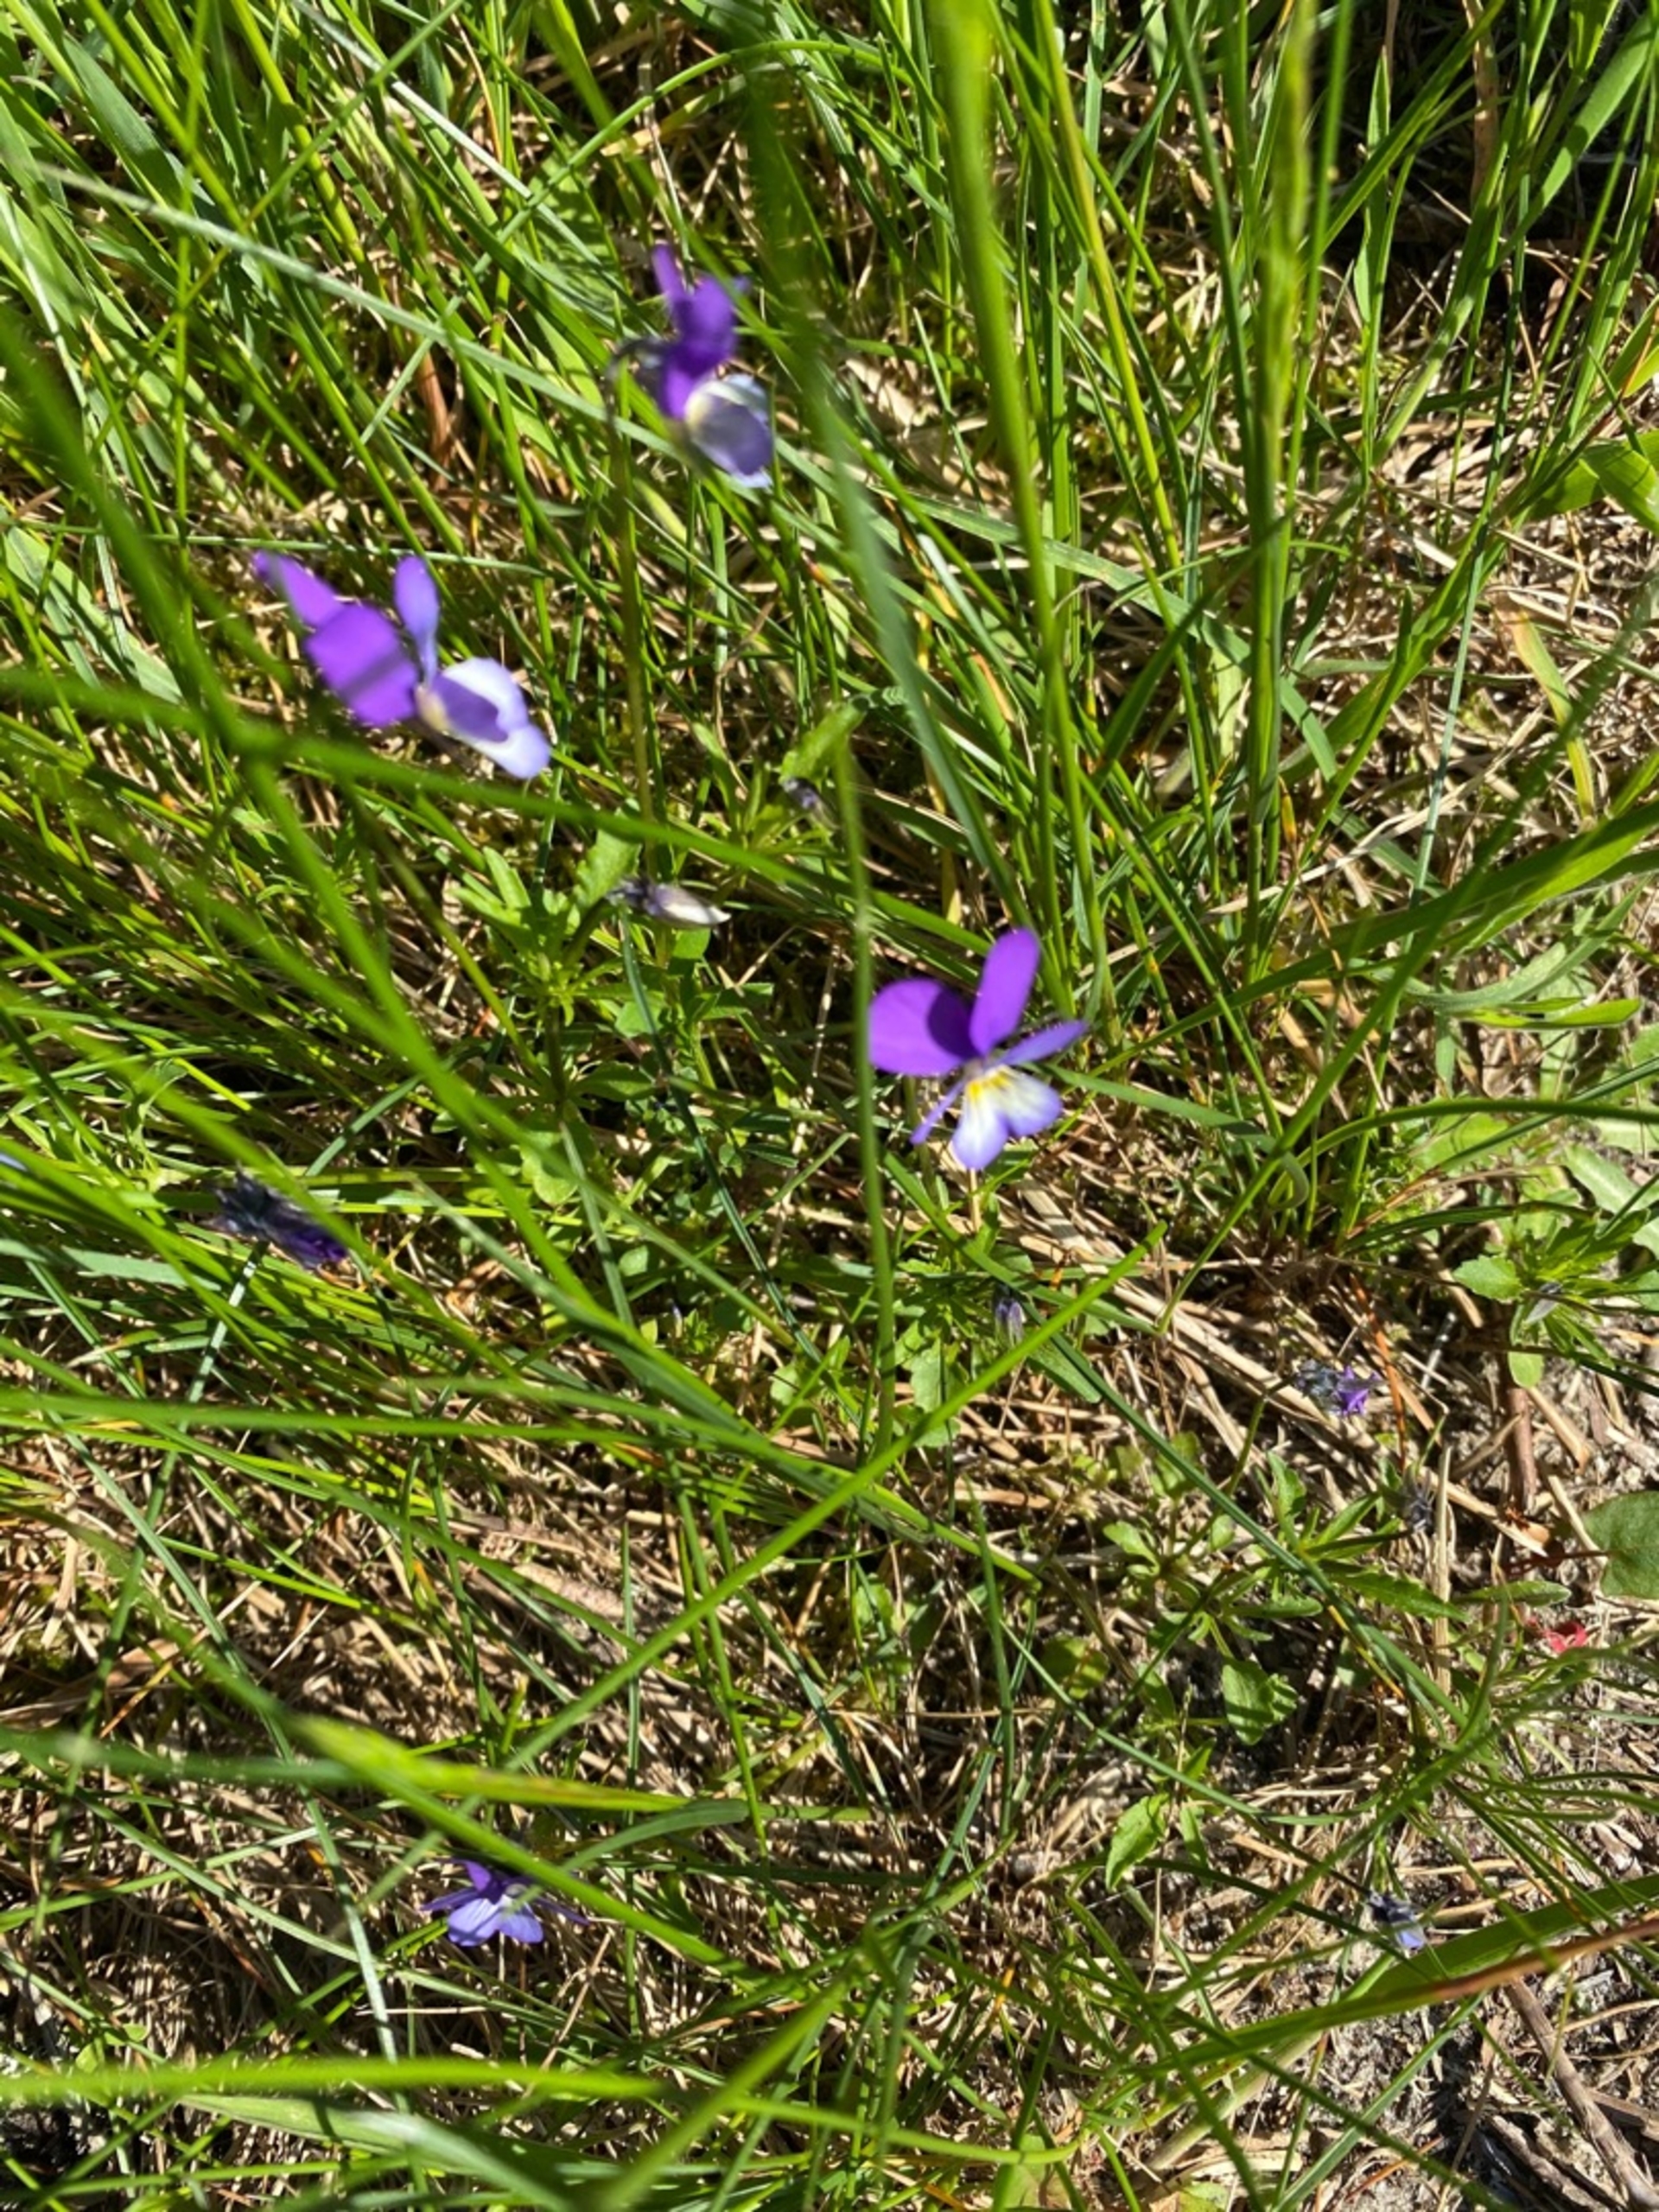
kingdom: Plantae
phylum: Tracheophyta
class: Magnoliopsida
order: Malpighiales
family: Violaceae
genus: Viola
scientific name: Viola tricolor
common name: Stedmoderblomst
